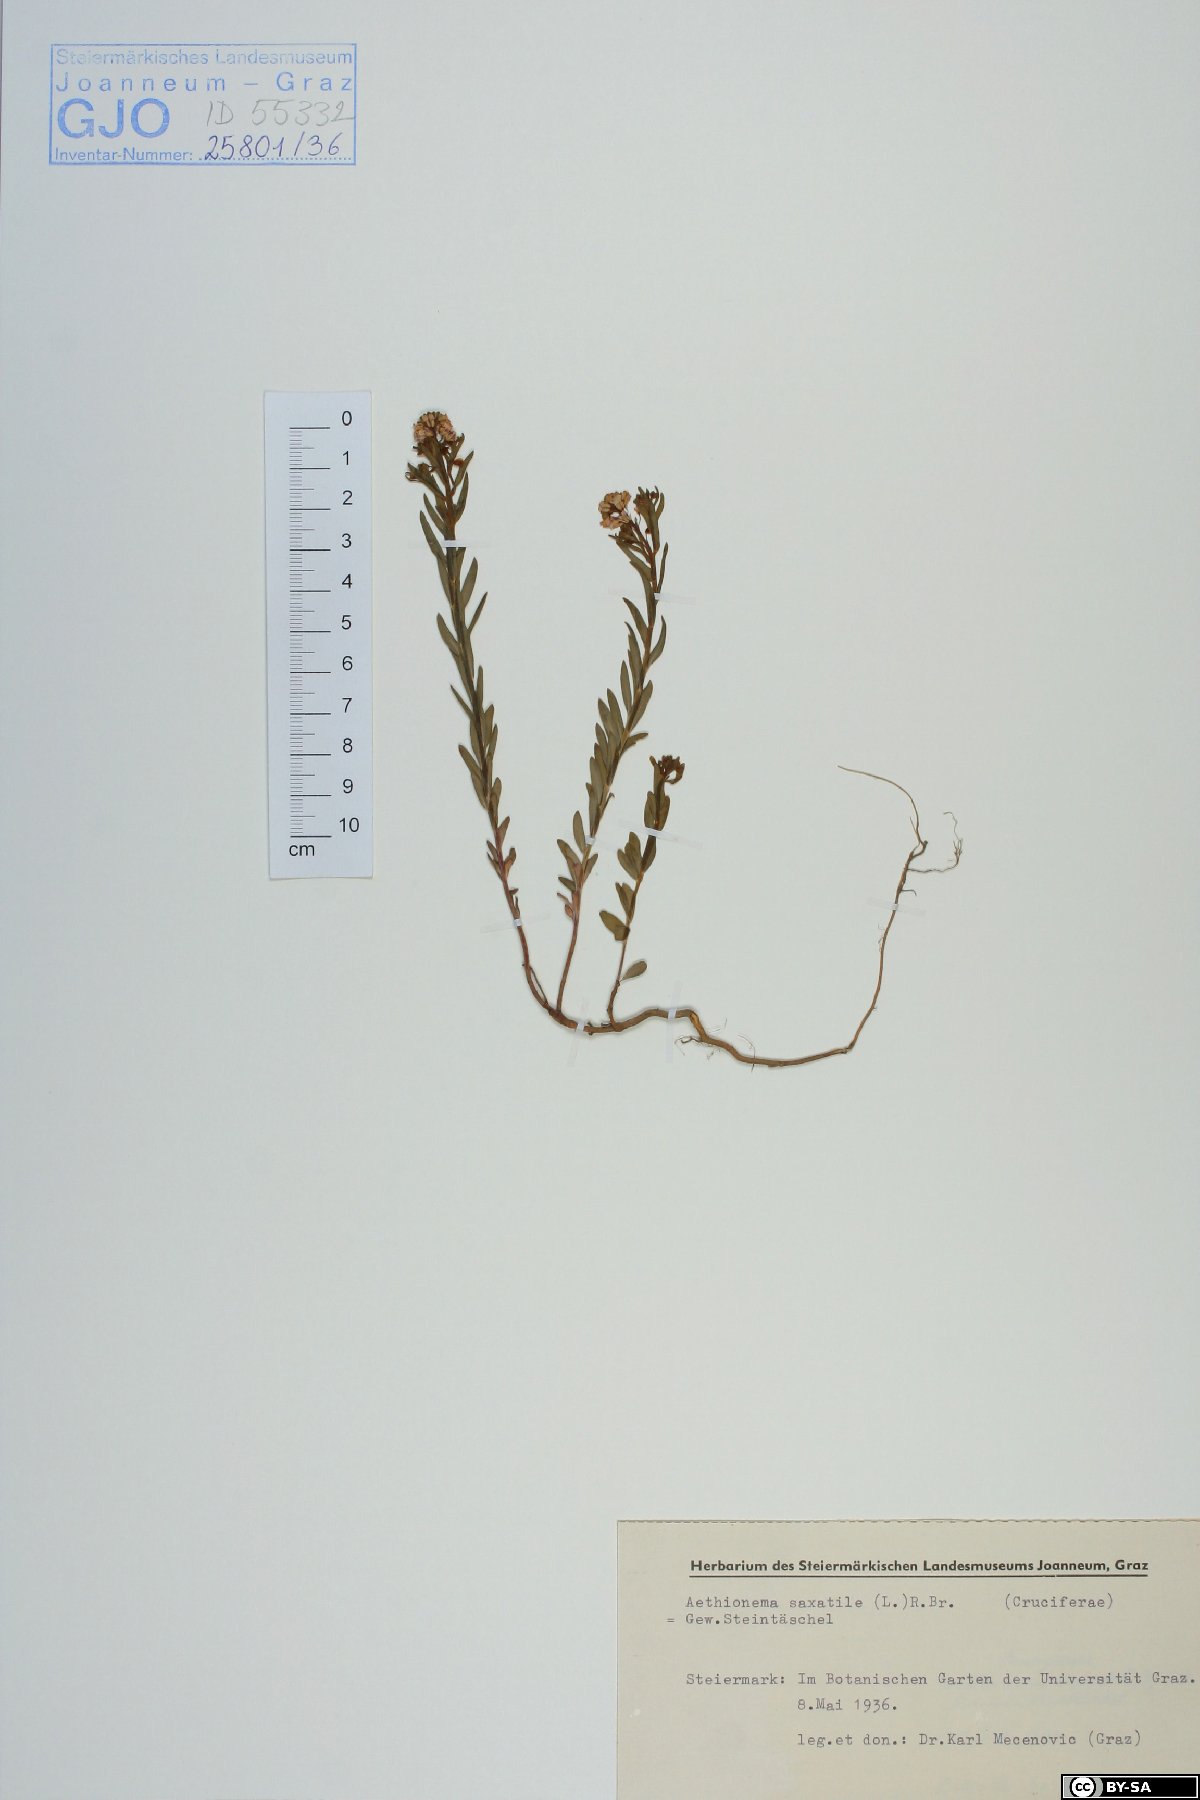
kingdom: Plantae
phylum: Tracheophyta
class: Magnoliopsida
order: Brassicales
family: Brassicaceae
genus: Aethionema
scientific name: Aethionema saxatile
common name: Burnt candytuft
